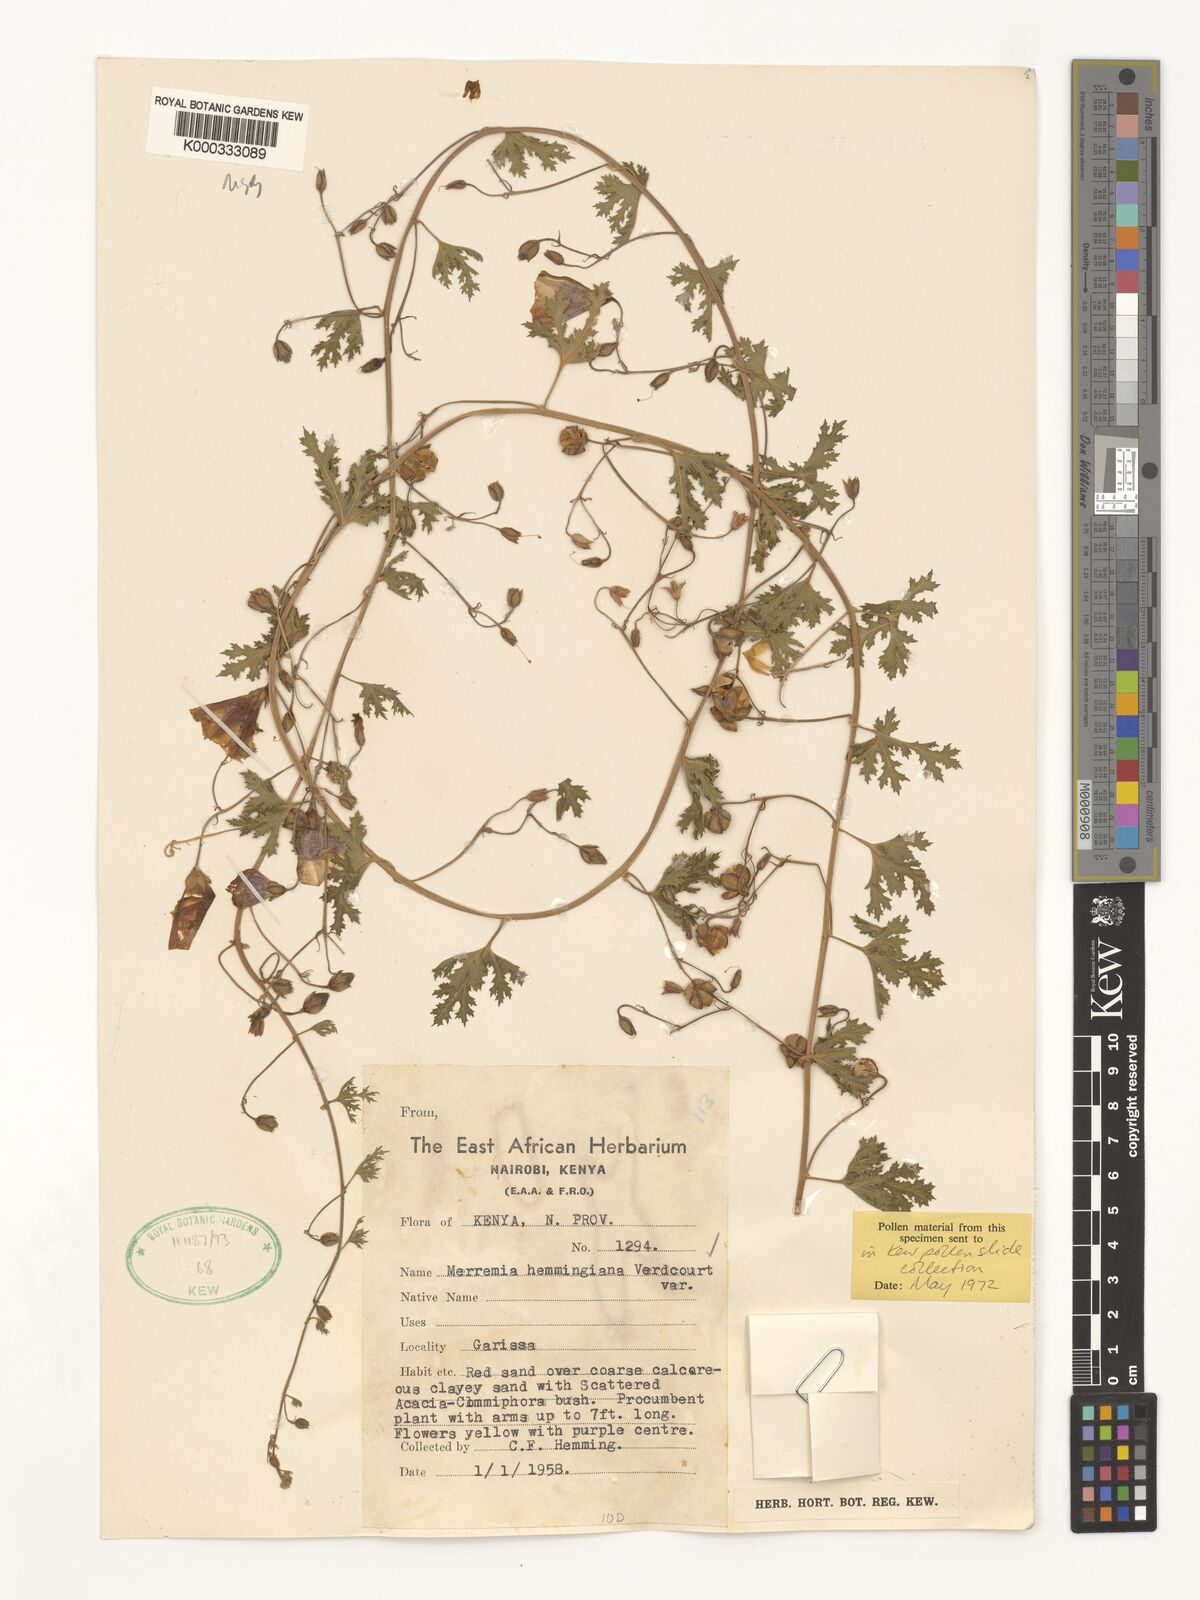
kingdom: Plantae
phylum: Tracheophyta
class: Magnoliopsida
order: Solanales
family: Convolvulaceae
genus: Merremia
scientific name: Merremia hemmingiana
